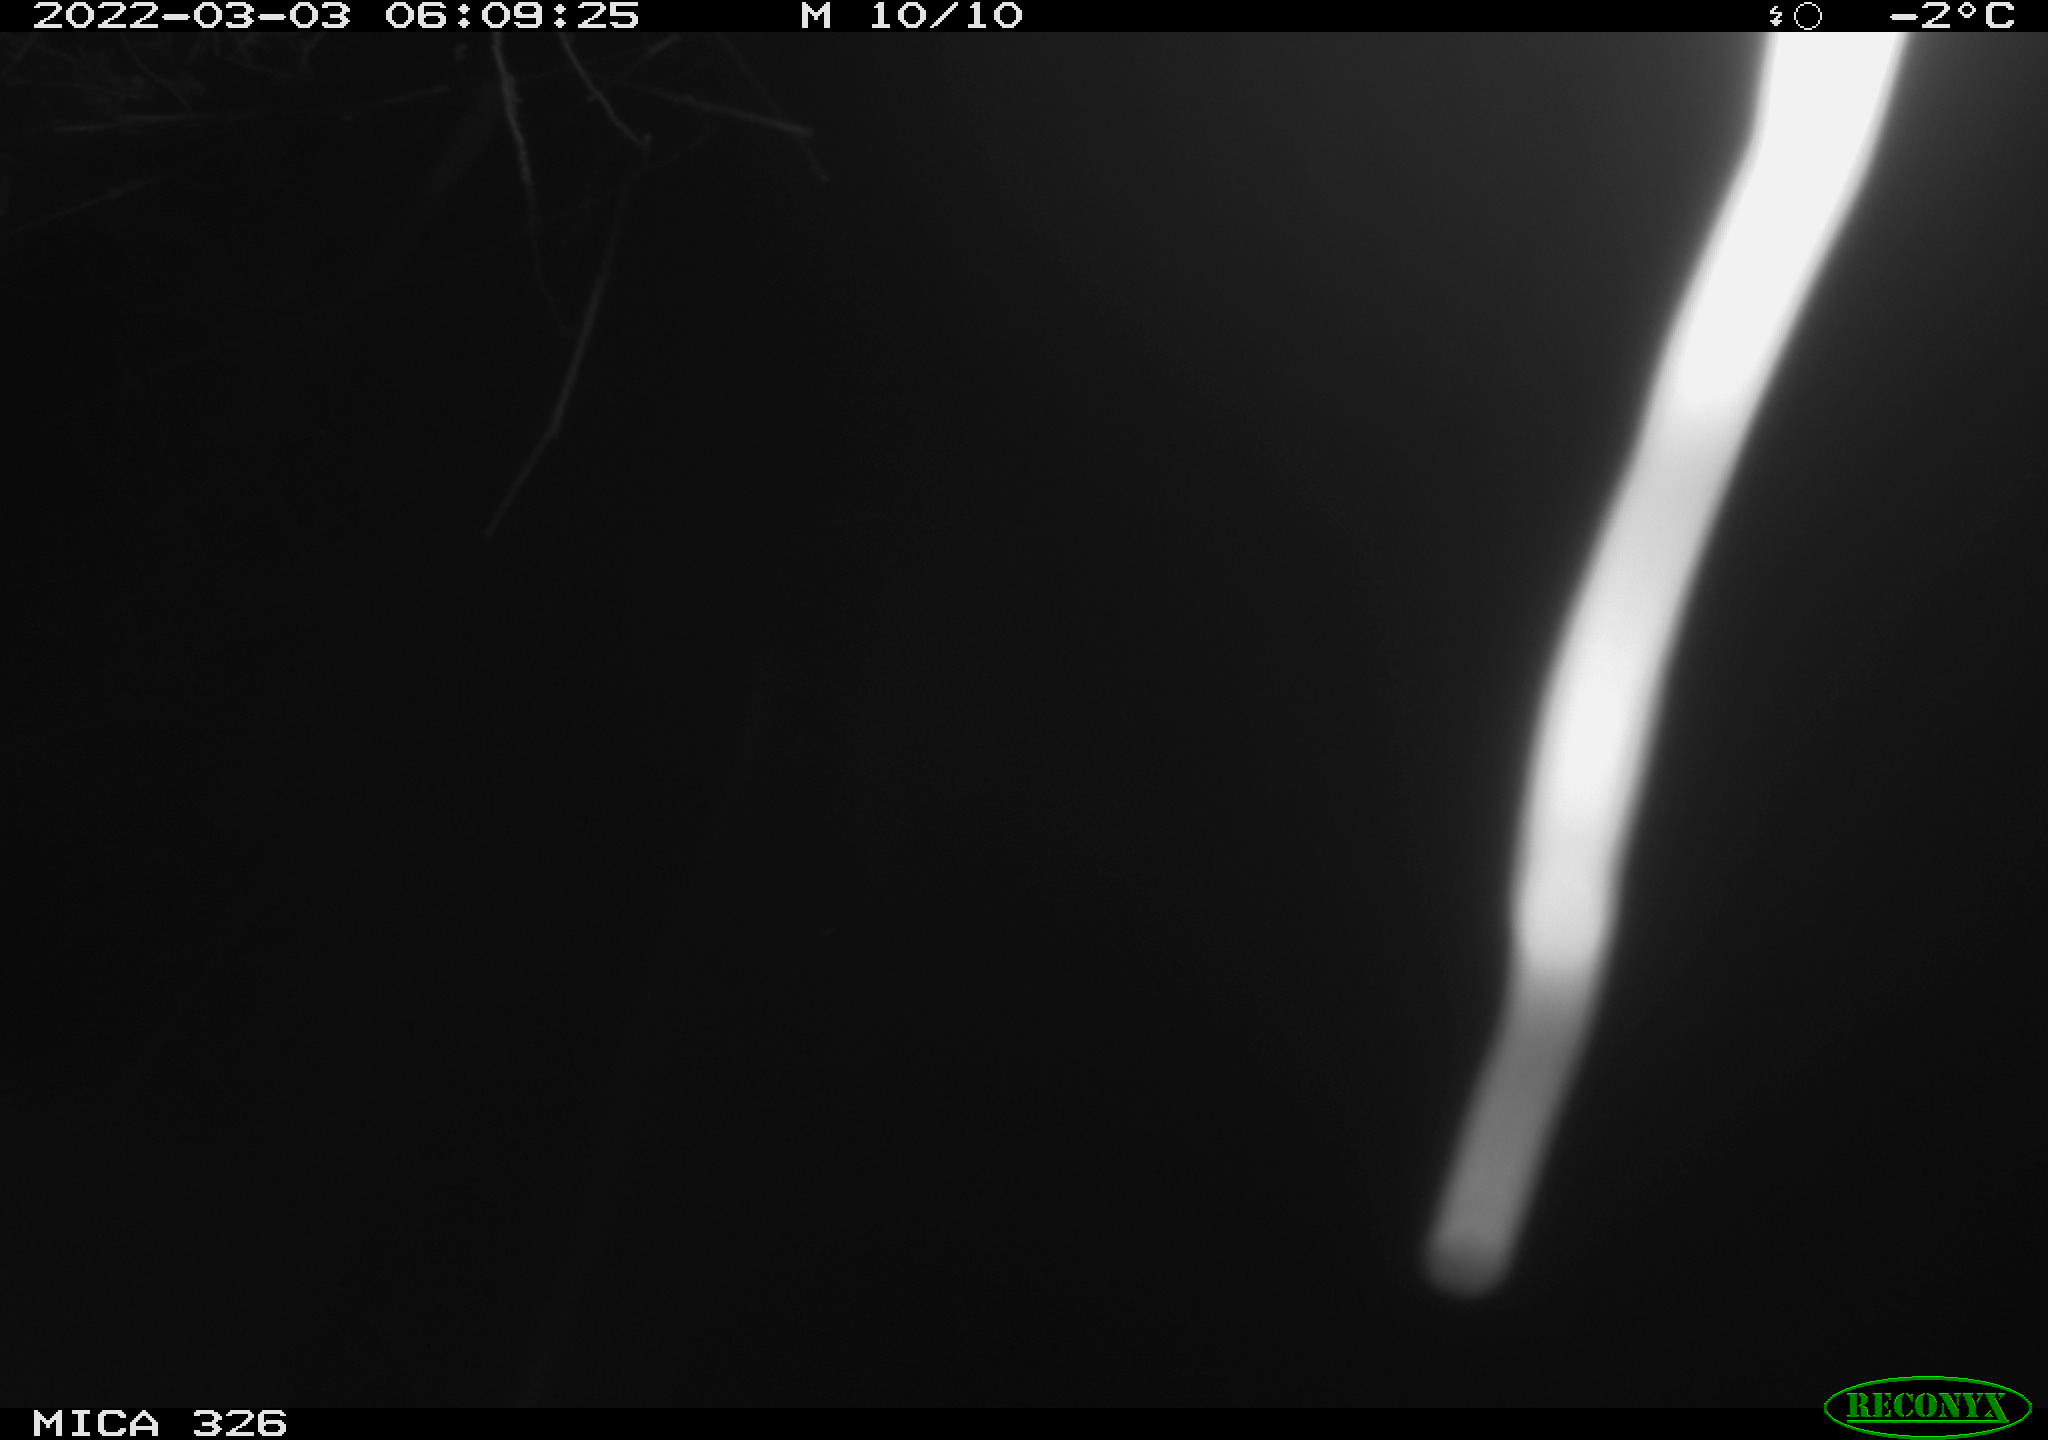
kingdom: Animalia
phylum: Chordata
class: Mammalia
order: Rodentia
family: Cricetidae
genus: Ondatra
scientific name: Ondatra zibethicus
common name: Muskrat
